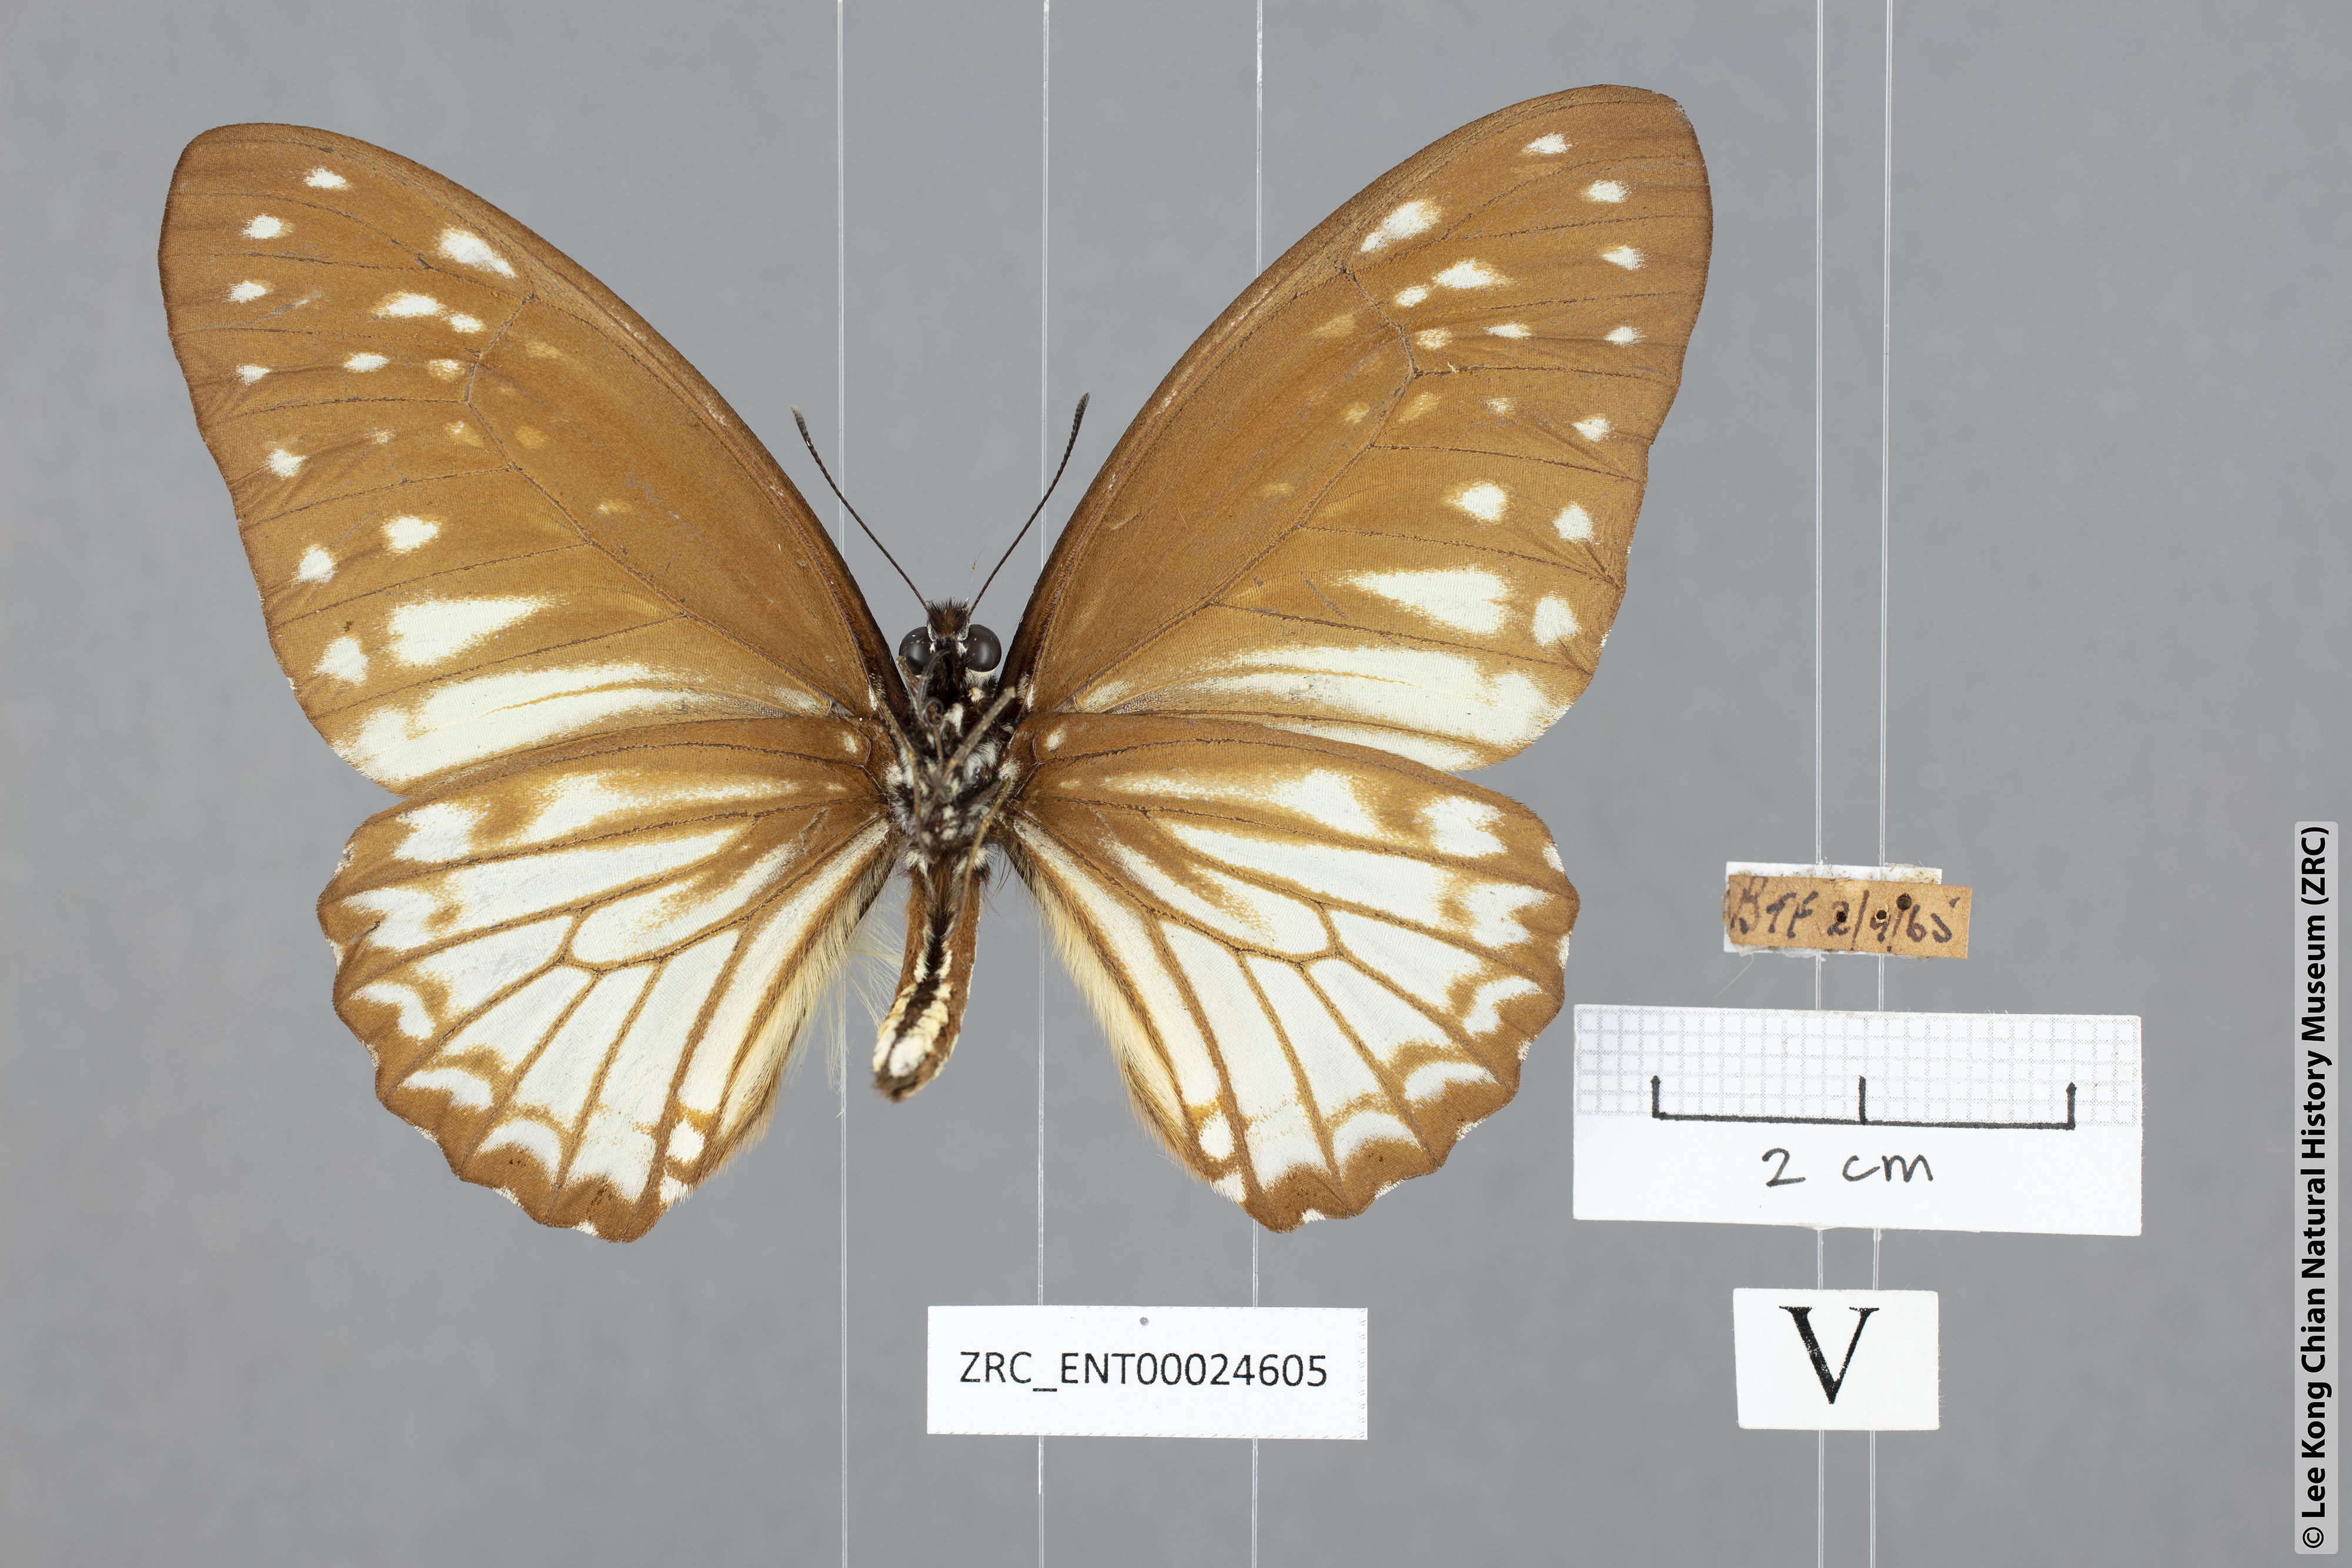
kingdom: Animalia
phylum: Arthropoda
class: Insecta
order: Lepidoptera
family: Papilionidae
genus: Graphium
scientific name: Graphium ramaceus
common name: Pendlebury's zebra
